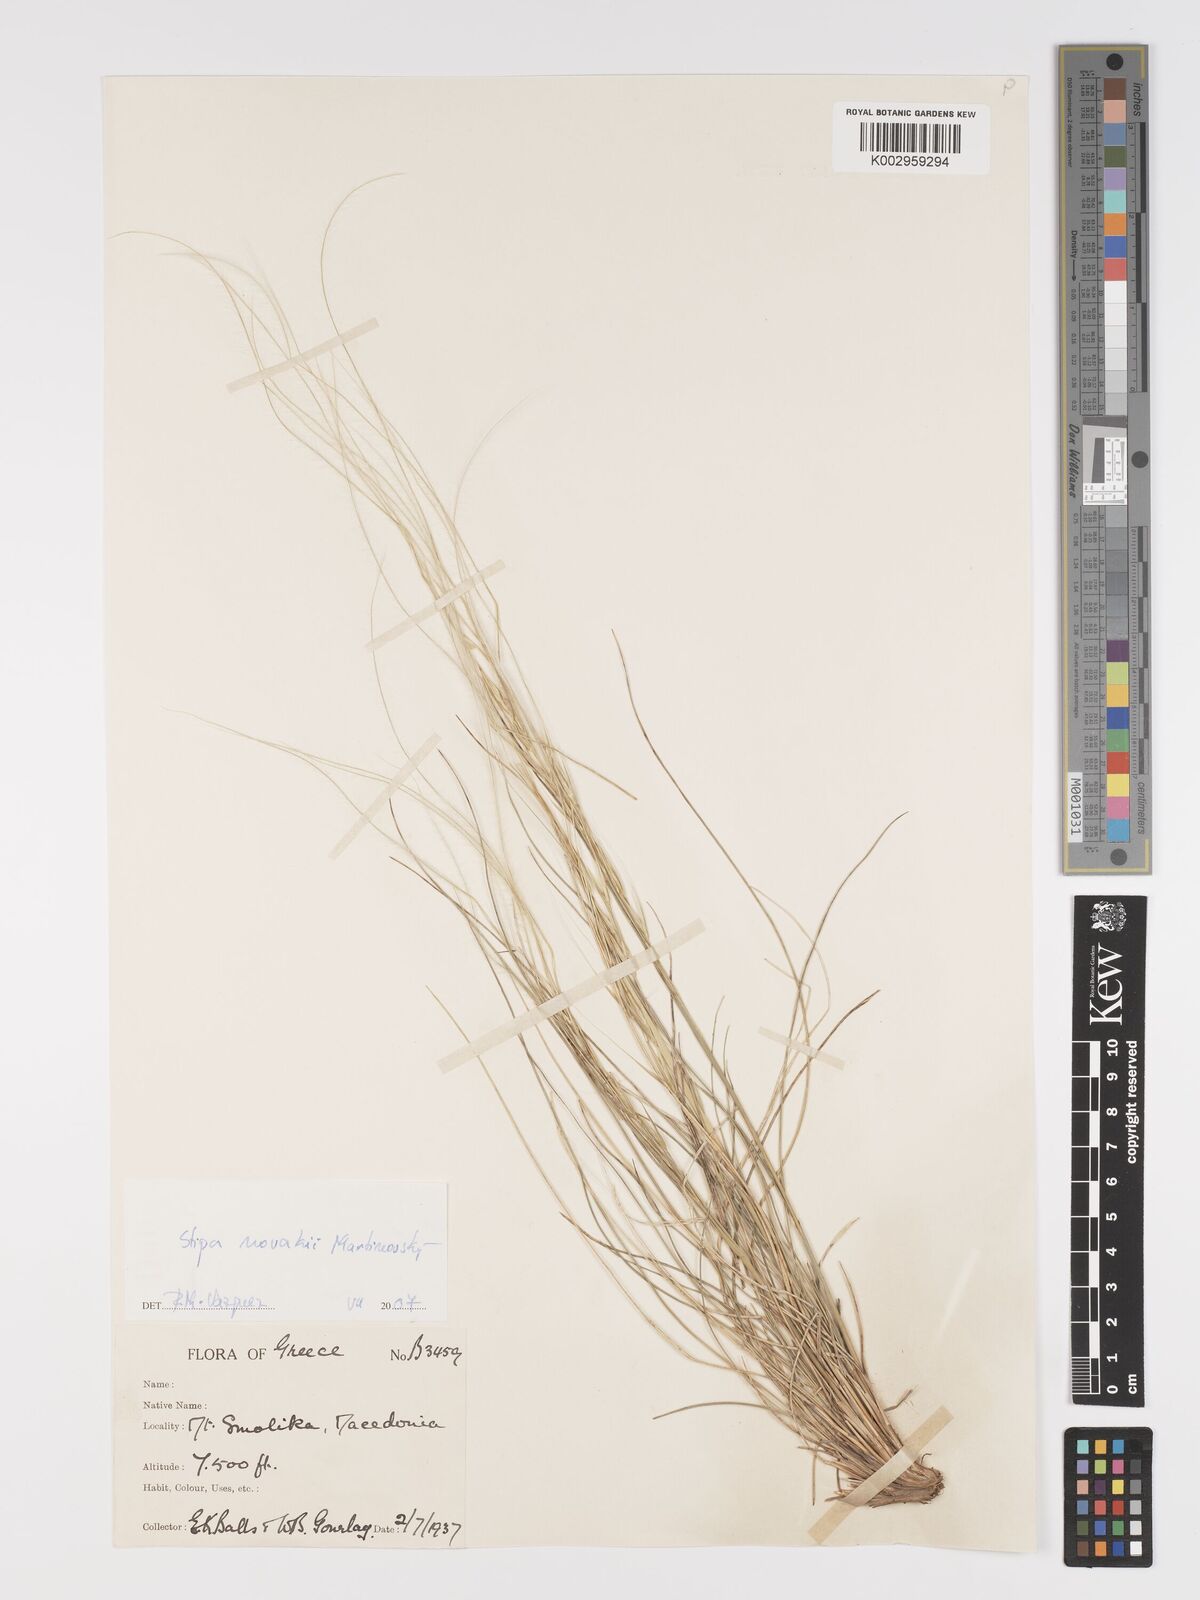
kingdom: Plantae
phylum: Tracheophyta
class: Liliopsida
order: Poales
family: Poaceae
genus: Stipa
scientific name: Stipa novakii
